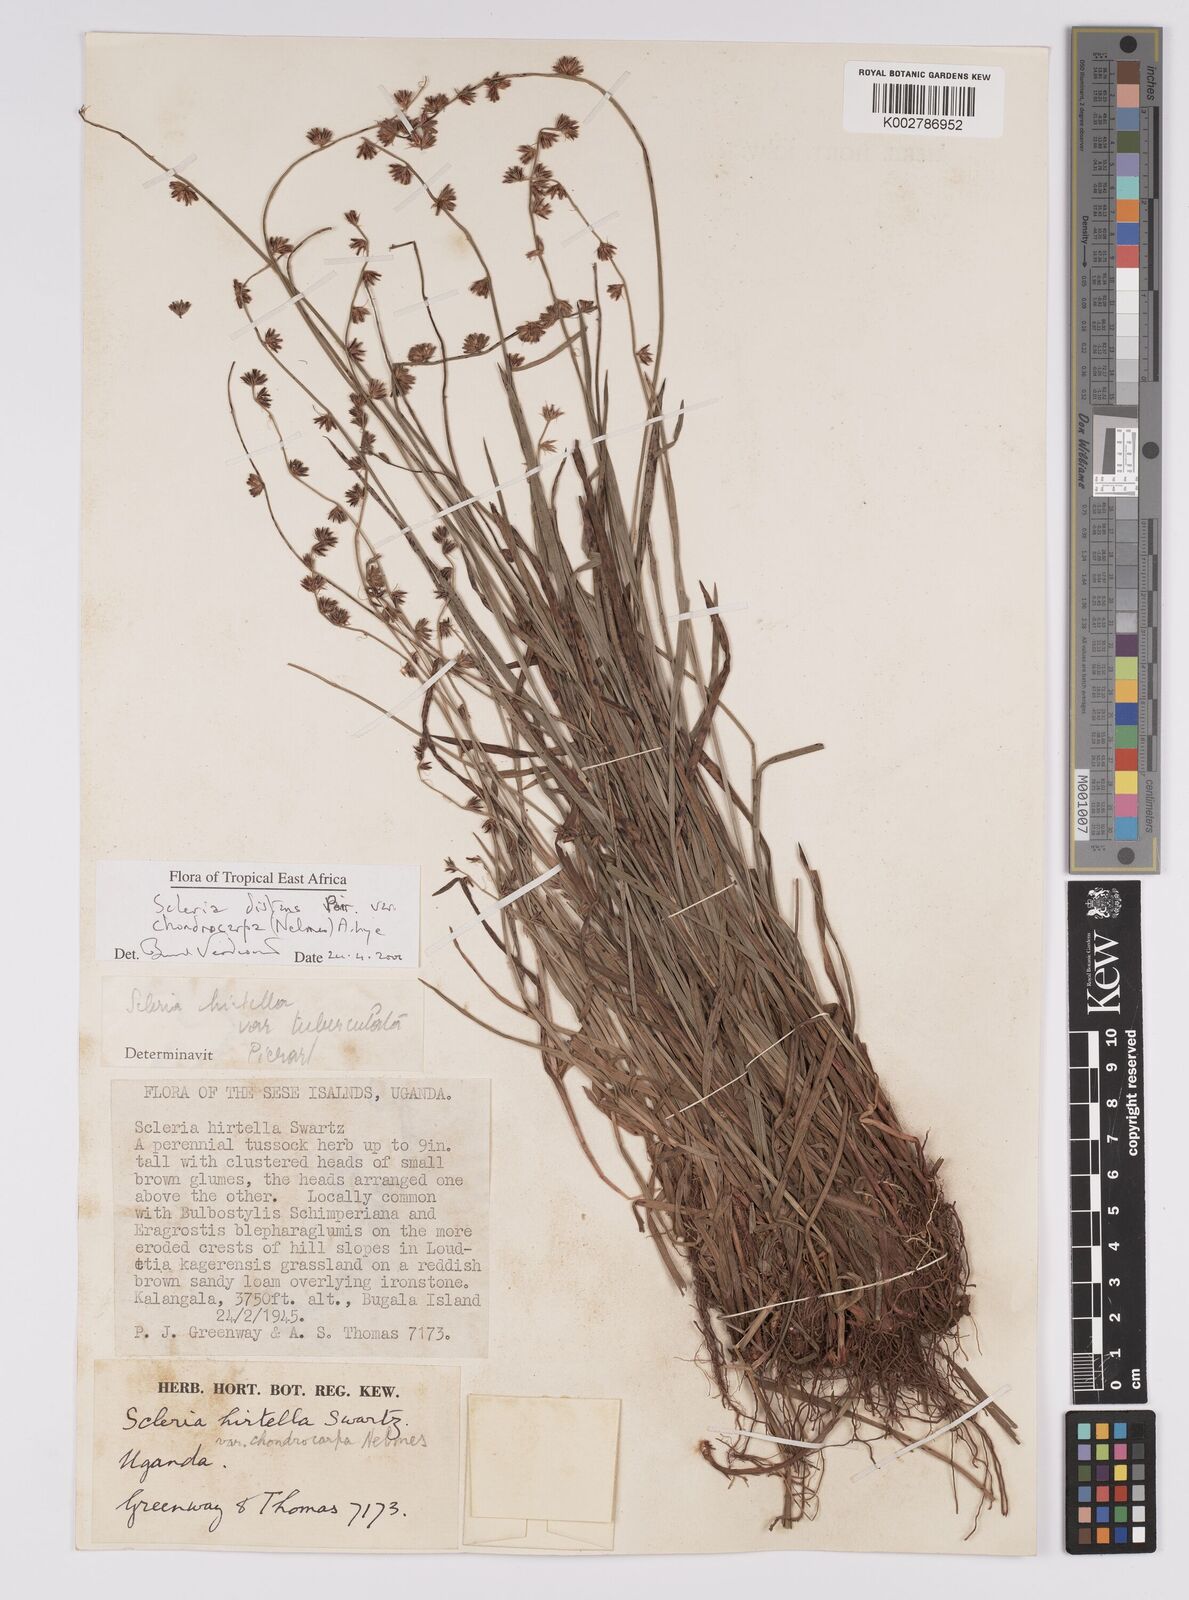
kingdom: Plantae
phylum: Tracheophyta
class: Liliopsida
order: Poales
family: Cyperaceae
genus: Scleria
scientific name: Scleria distans
